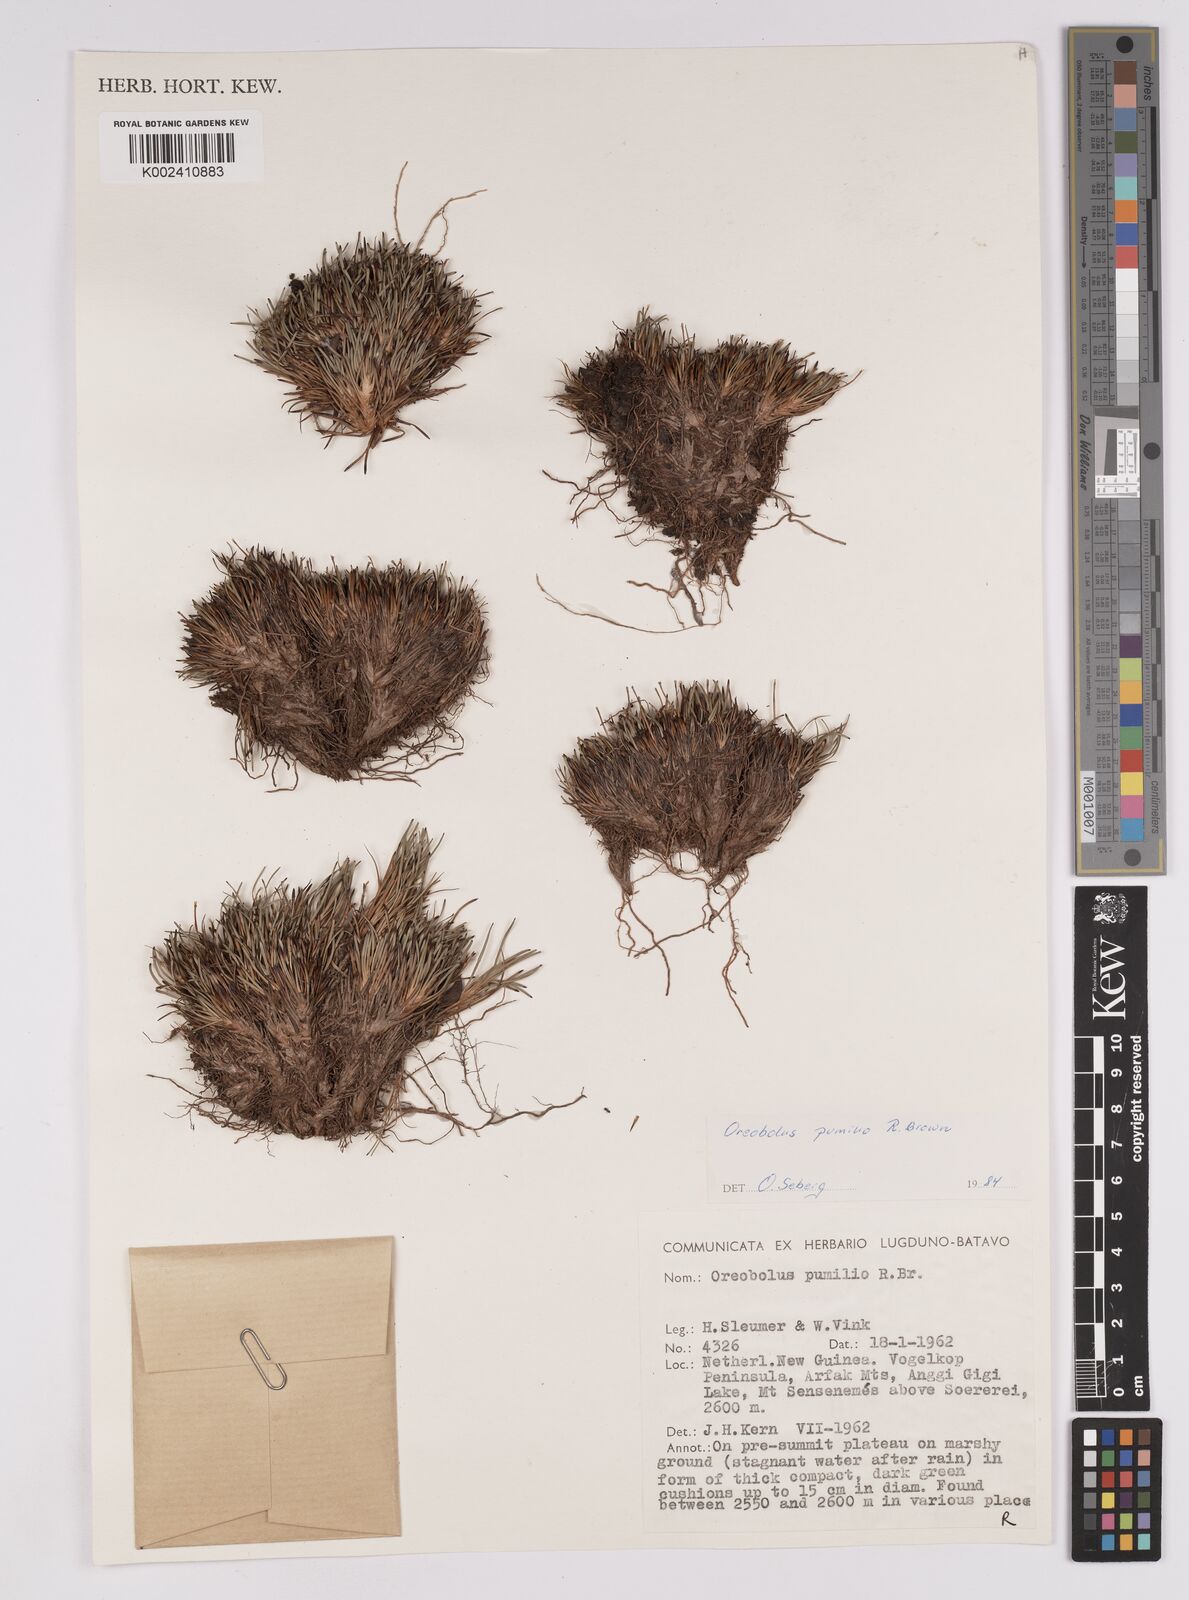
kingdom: Plantae
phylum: Tracheophyta
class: Liliopsida
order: Poales
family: Cyperaceae
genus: Oreobolus
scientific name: Oreobolus pumilio
